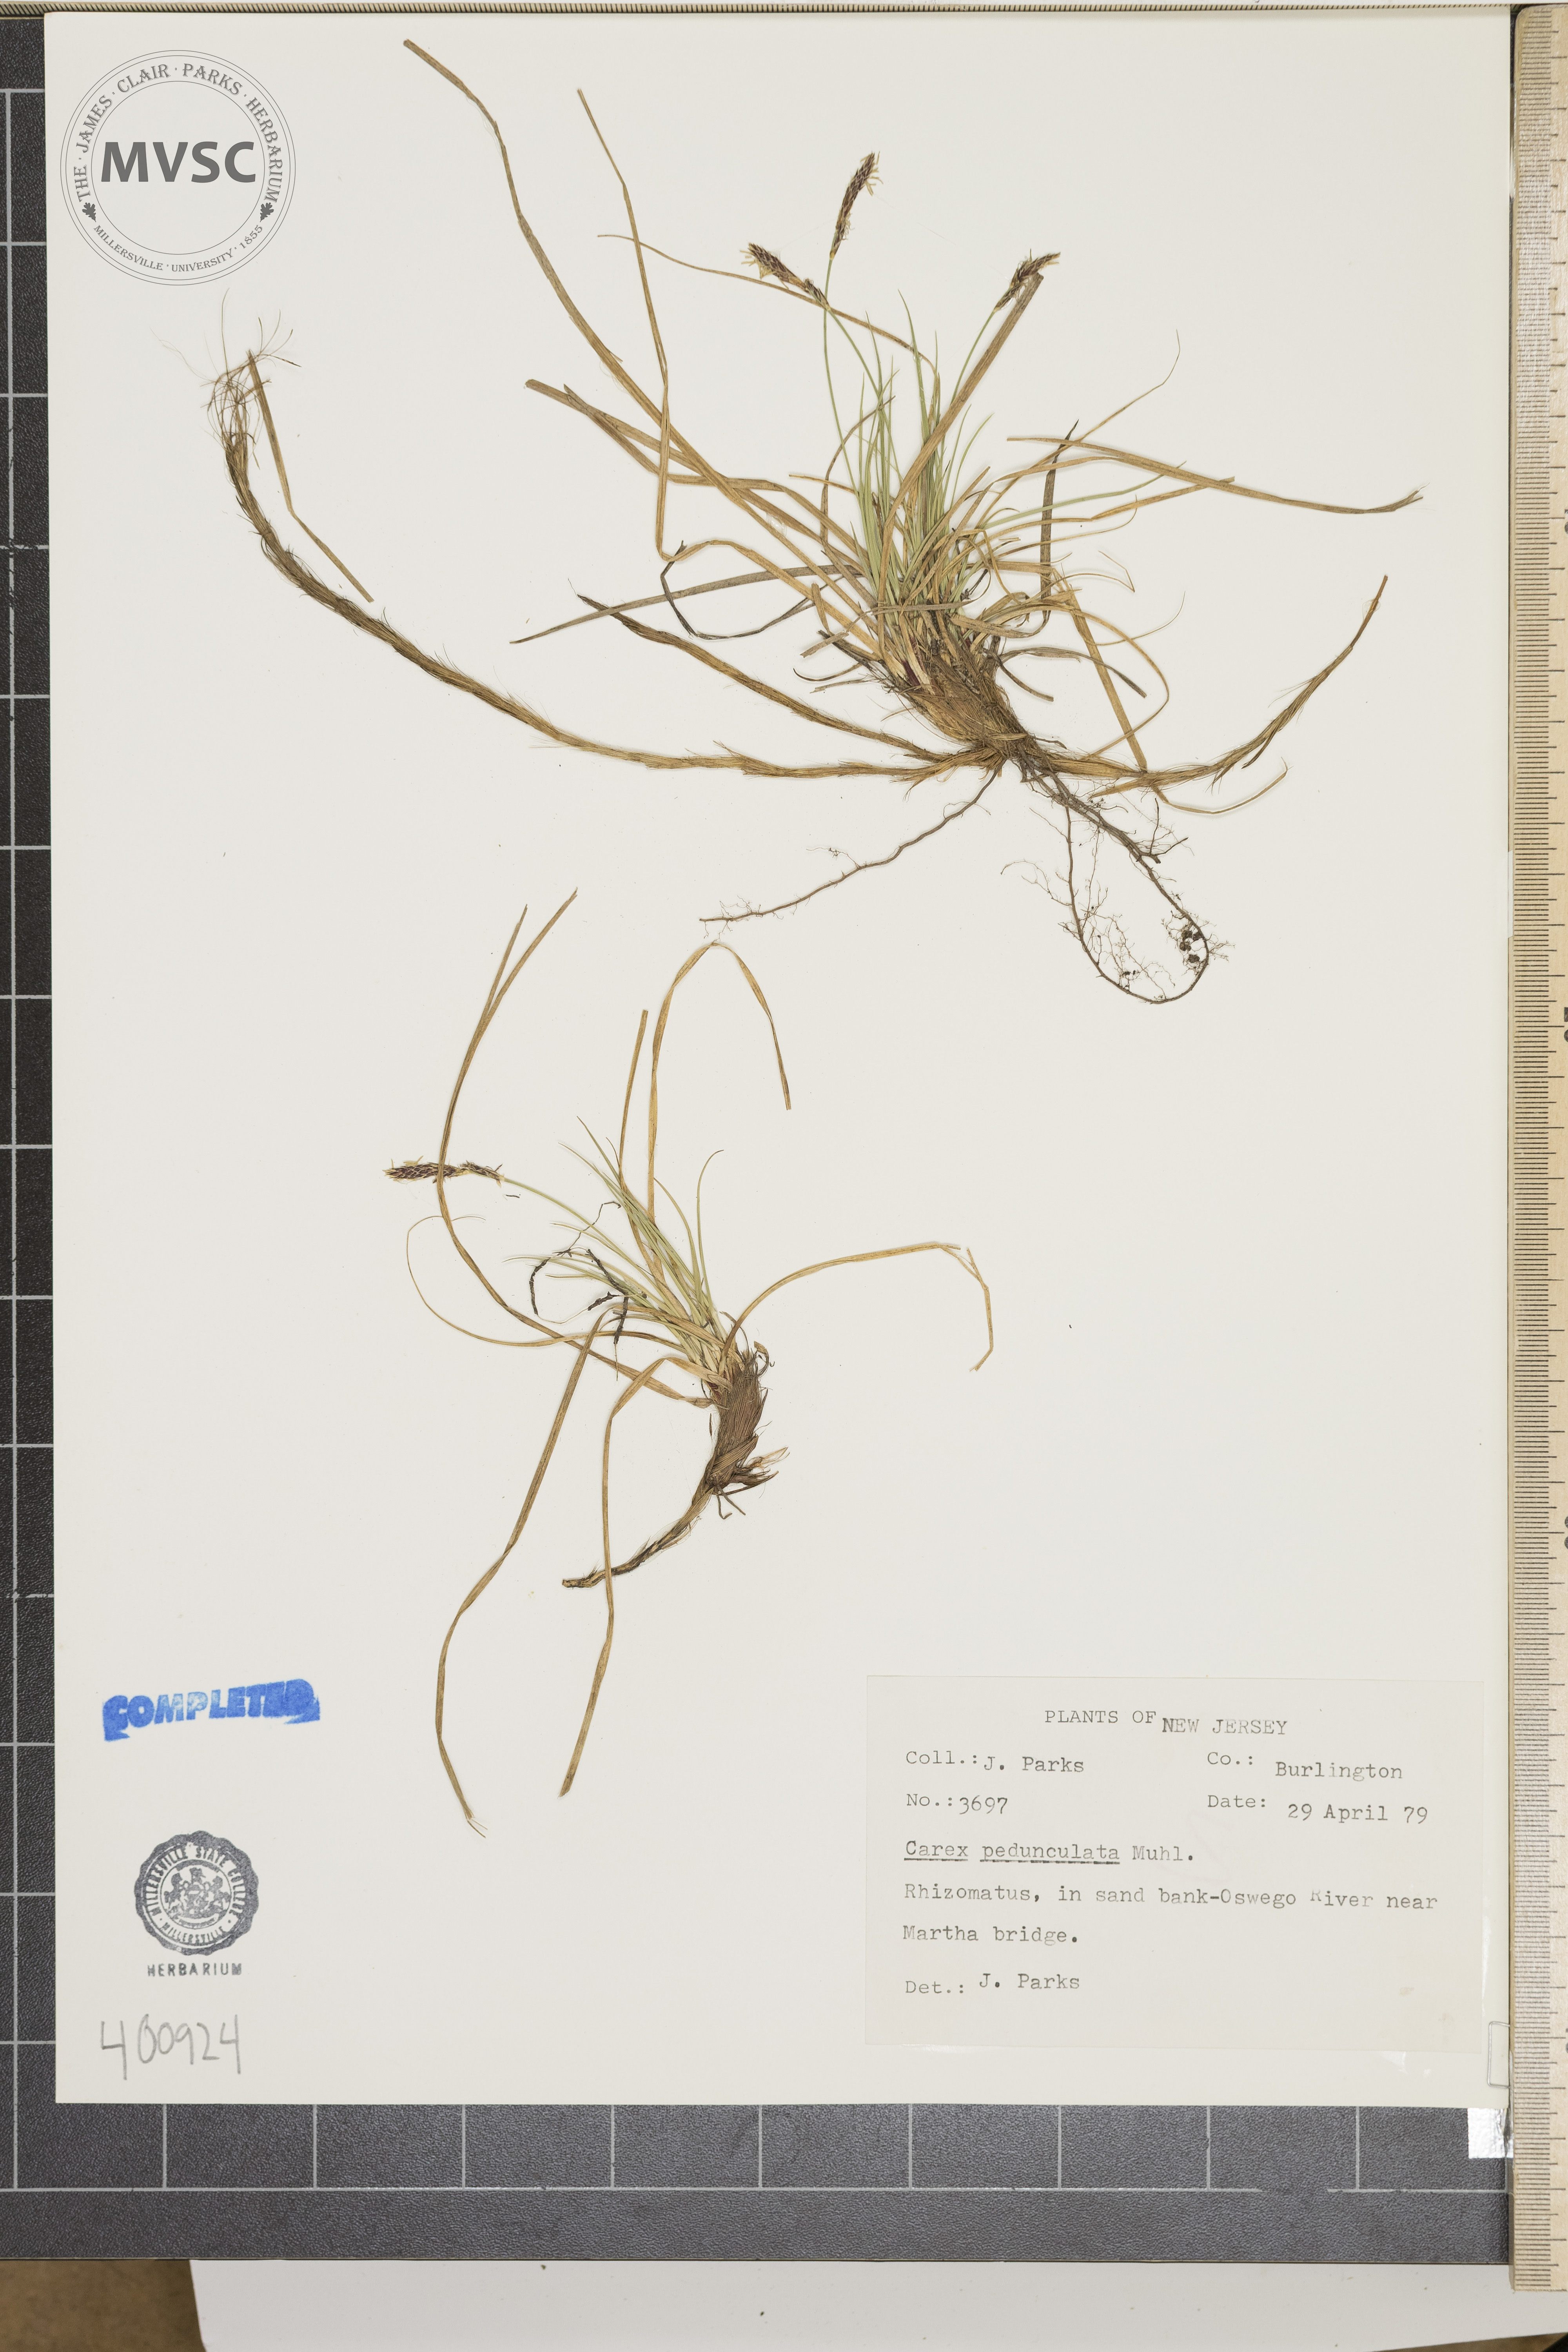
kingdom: Plantae
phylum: Tracheophyta
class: Liliopsida
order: Poales
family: Cyperaceae
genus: Carex
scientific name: Carex pedunculata
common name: sedge
